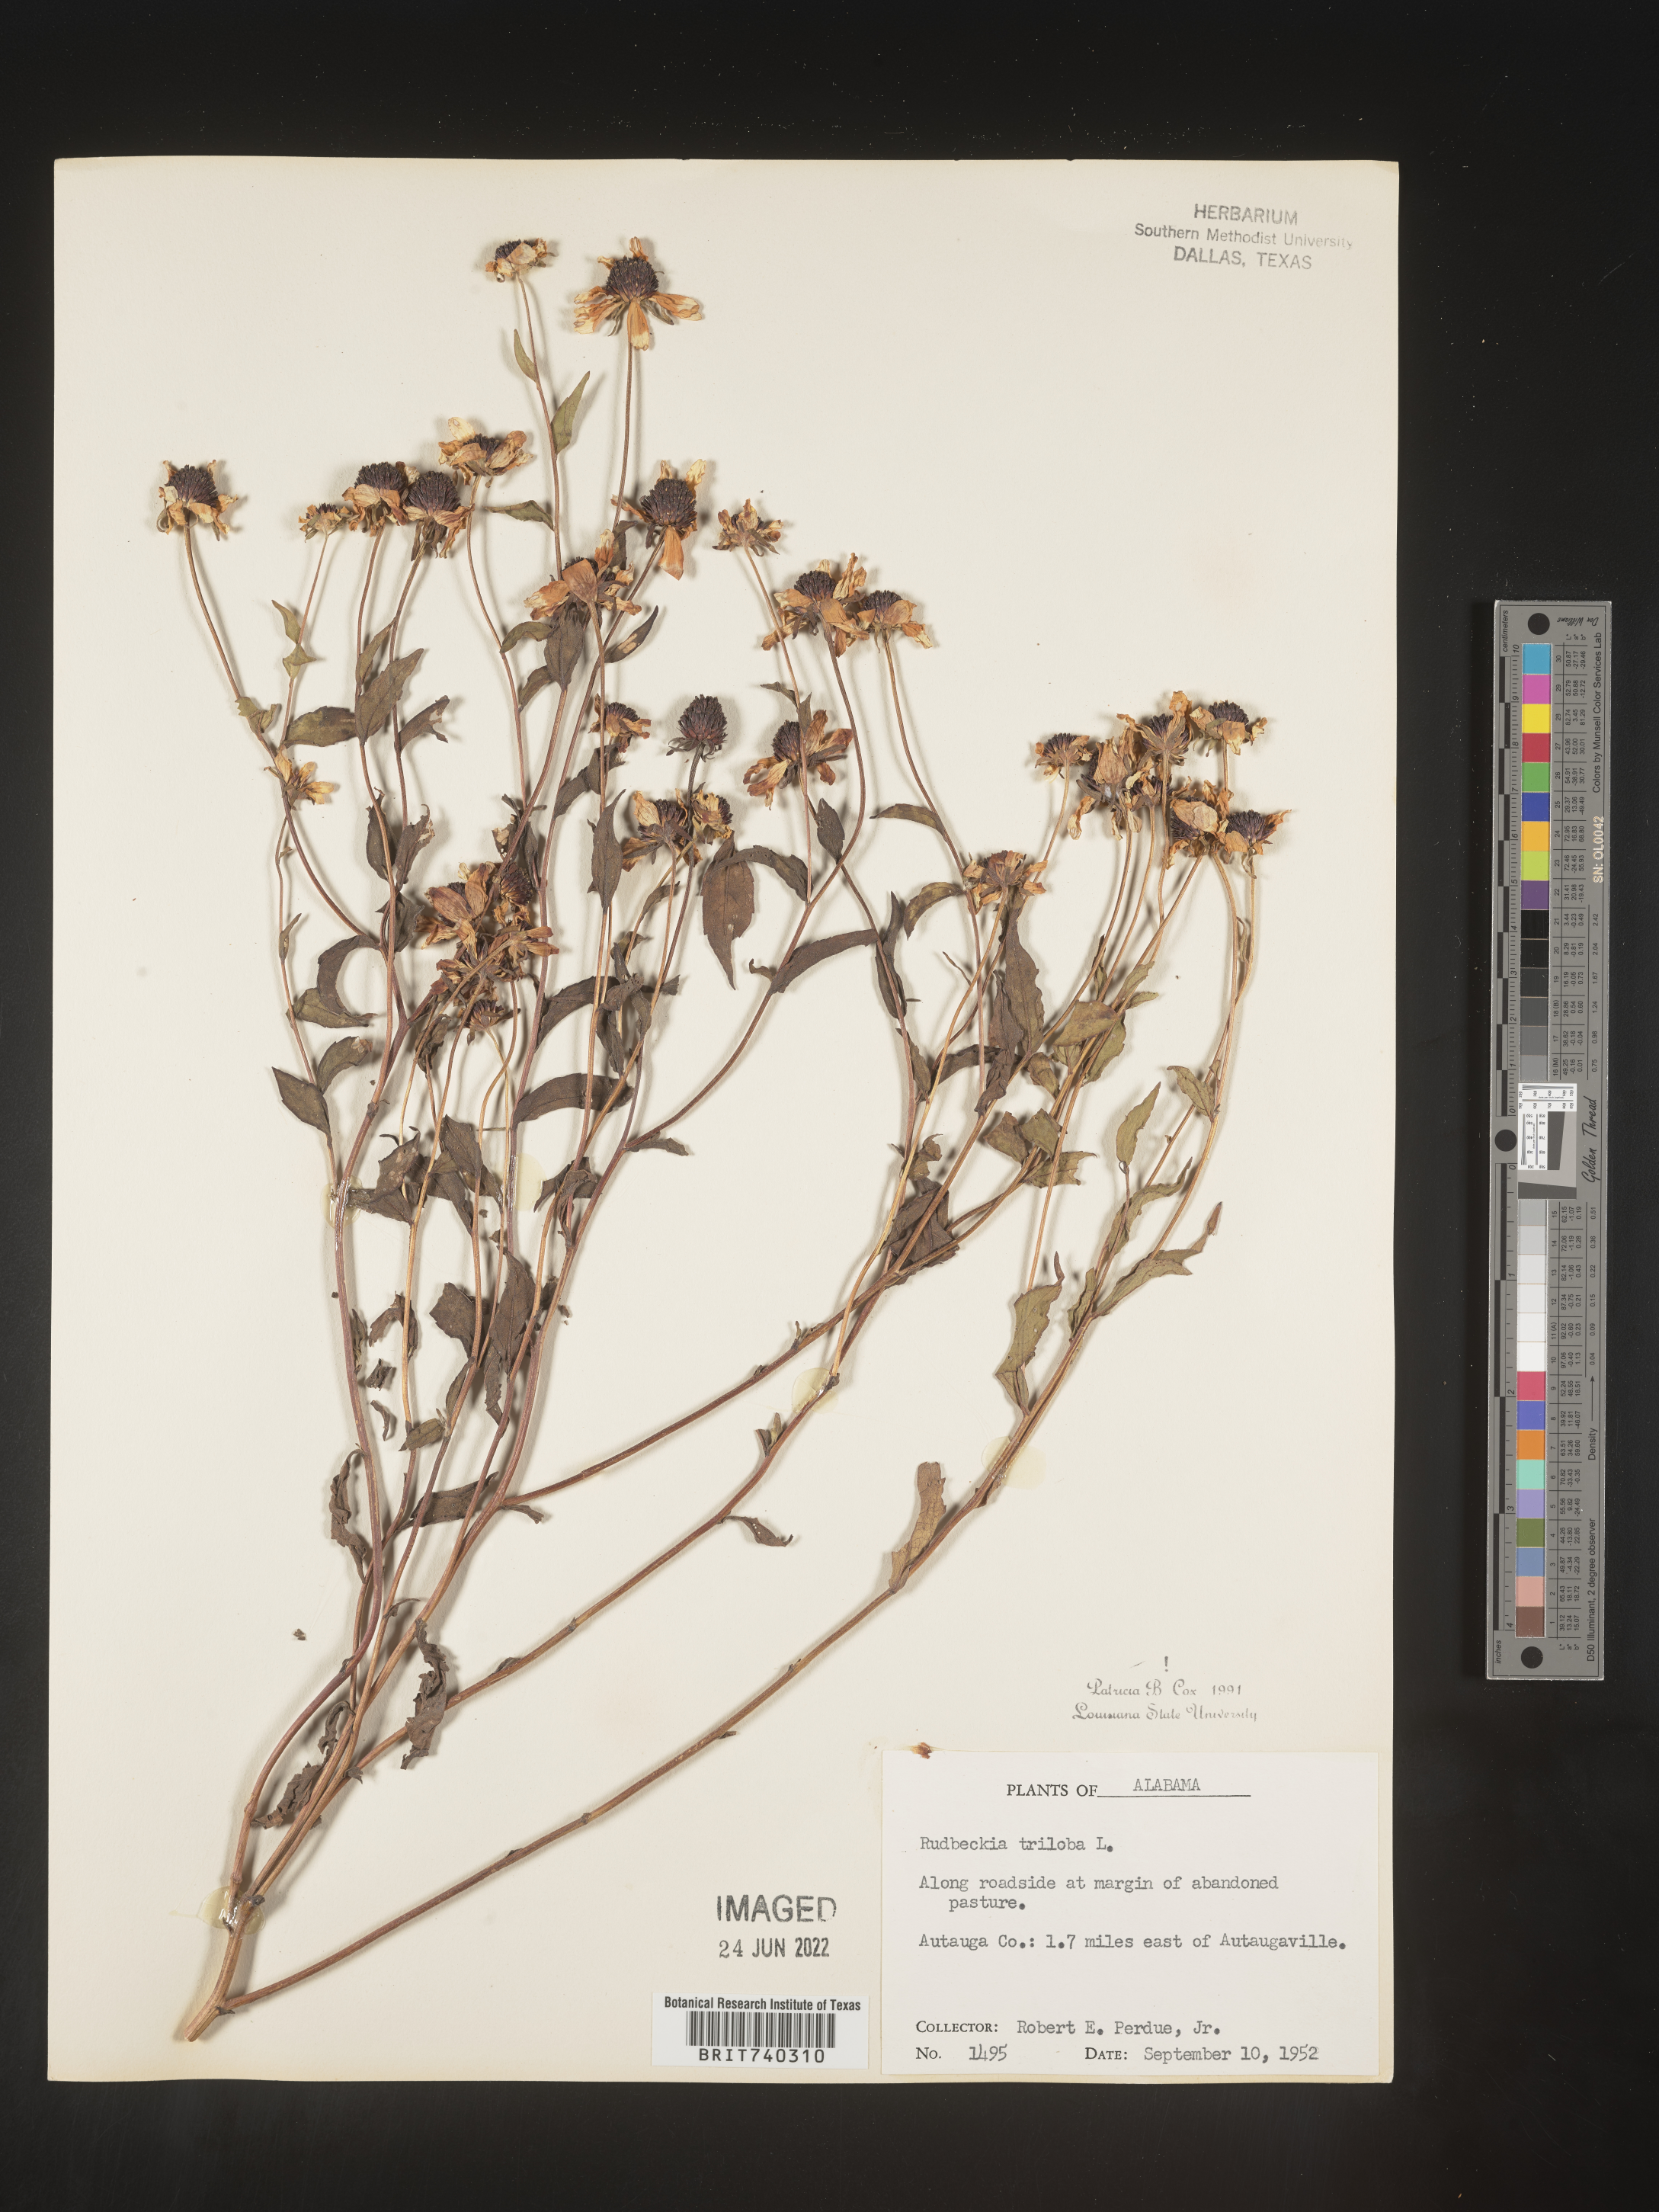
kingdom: Plantae
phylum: Tracheophyta
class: Magnoliopsida
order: Asterales
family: Asteraceae
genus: Rudbeckia
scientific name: Rudbeckia triloba
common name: Thin-leaved coneflower
